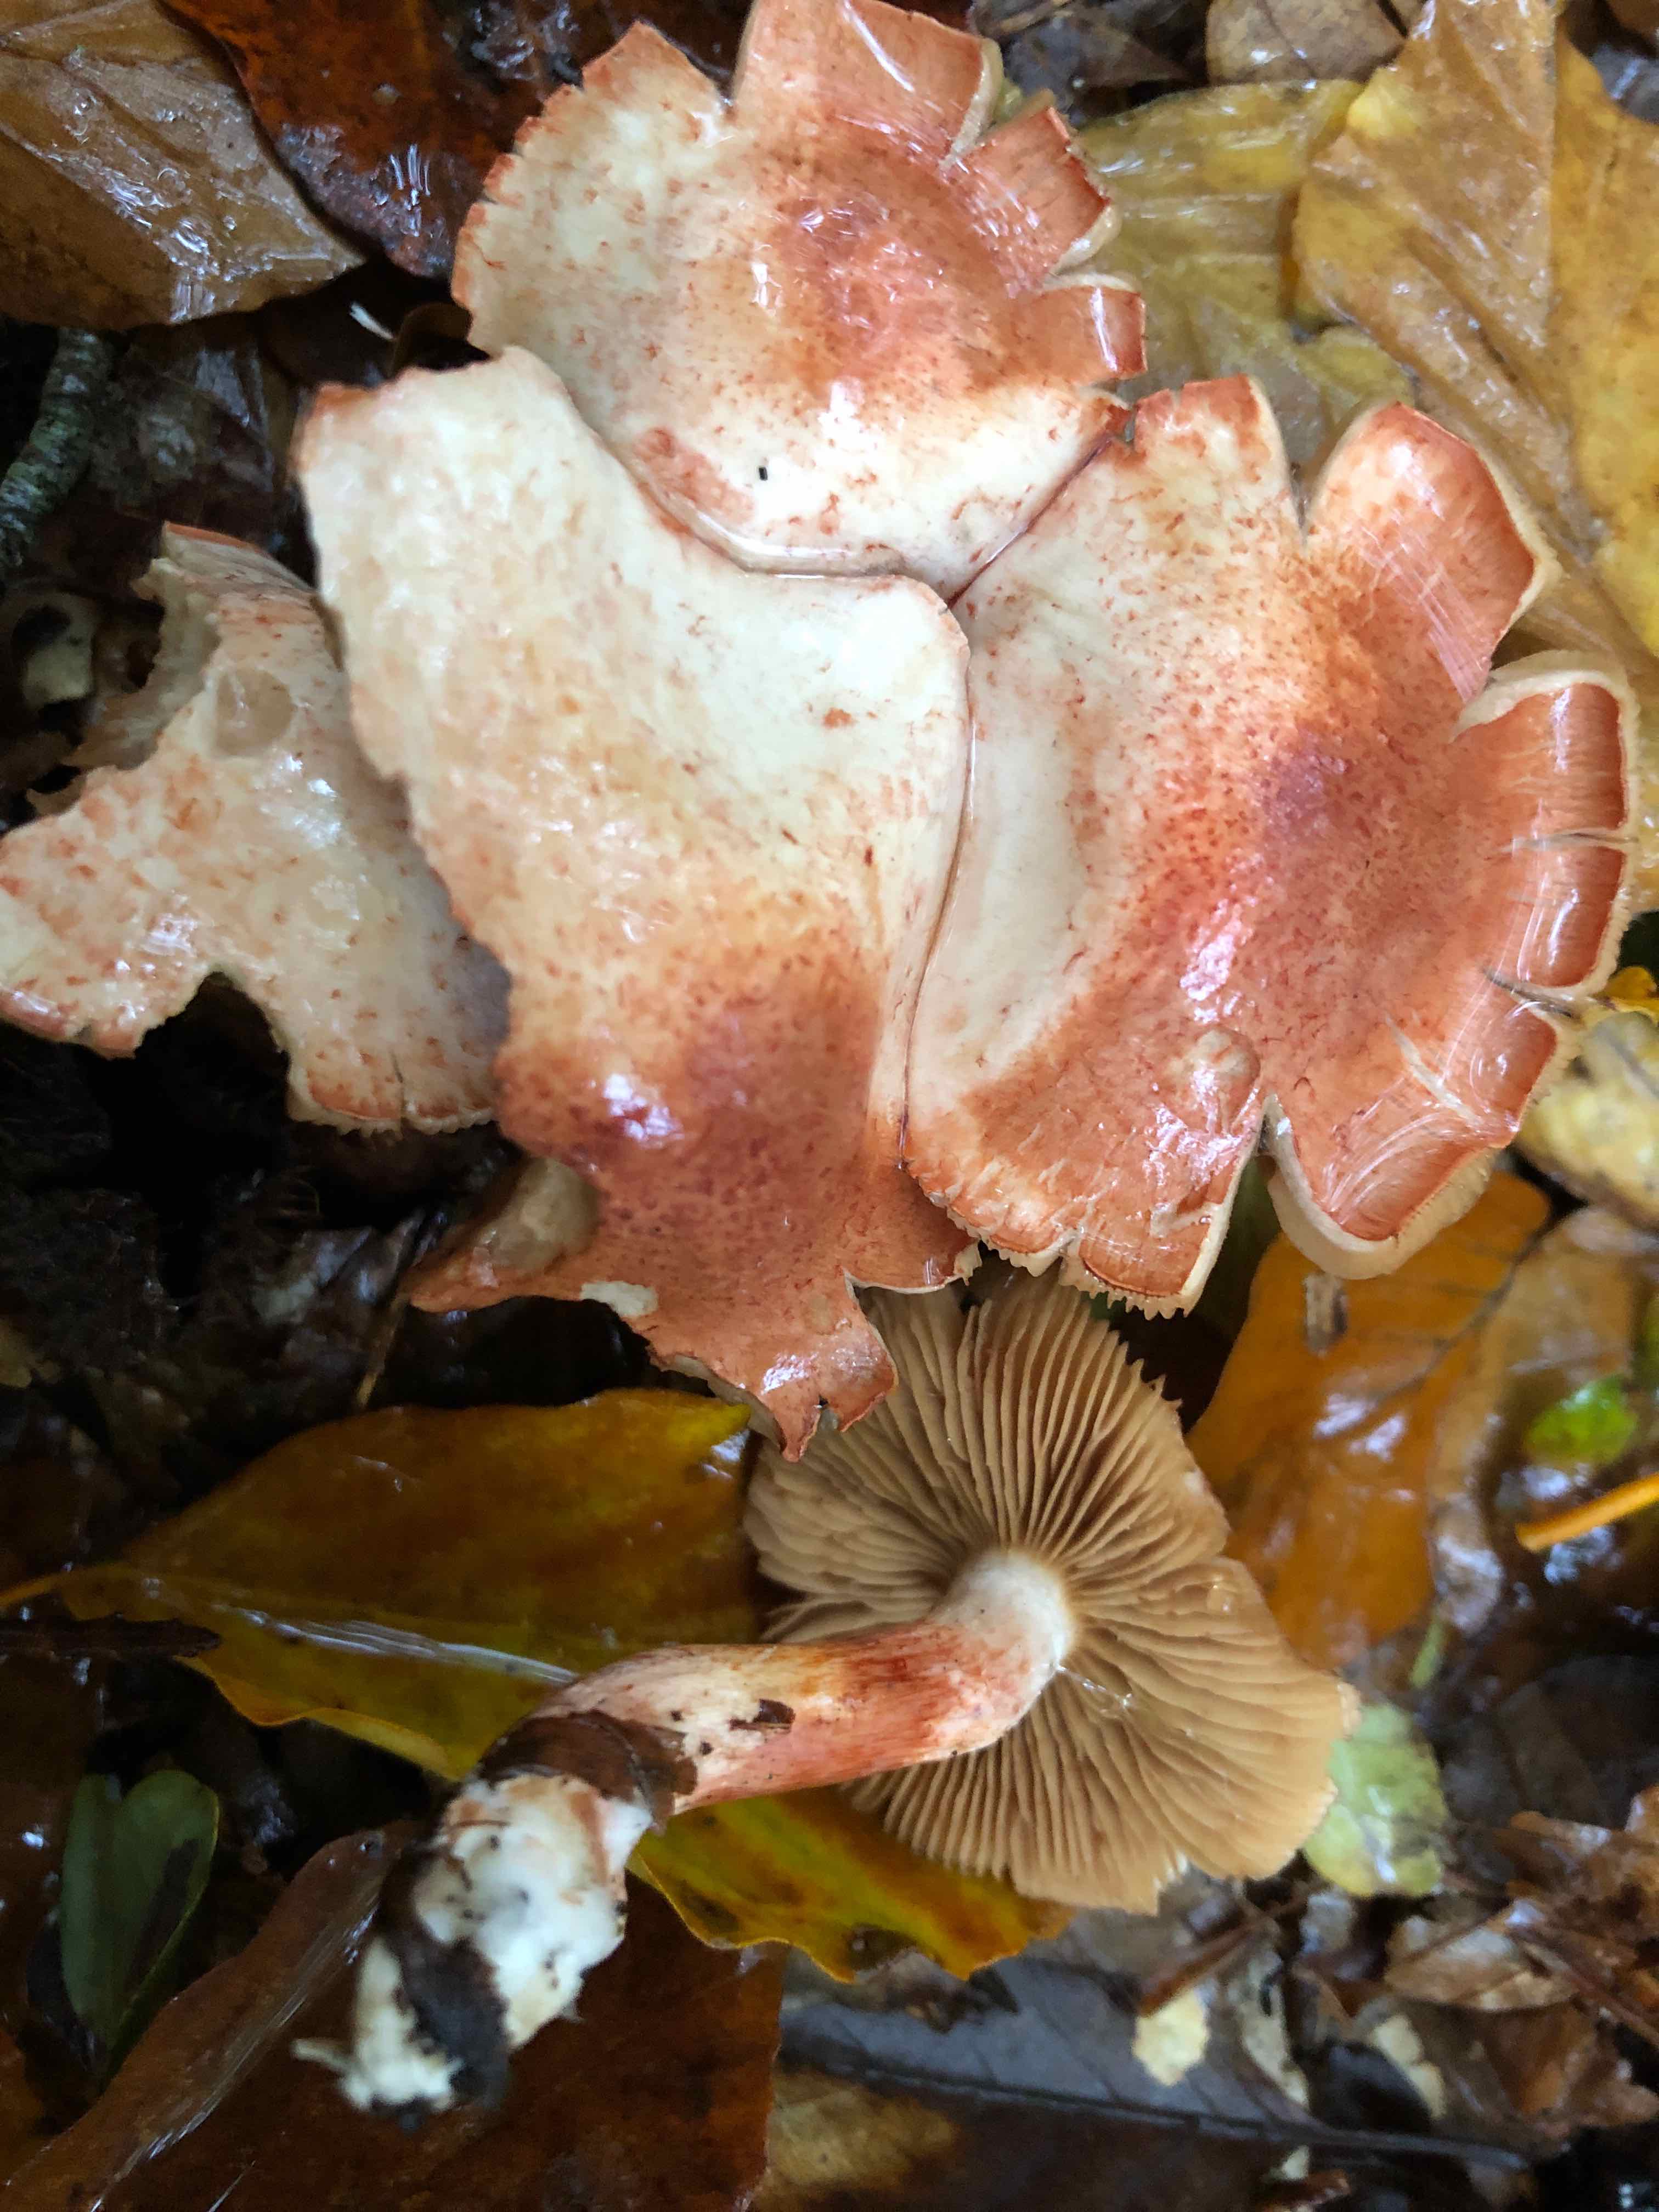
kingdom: Fungi
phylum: Basidiomycota
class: Agaricomycetes
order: Agaricales
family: Cortinariaceae
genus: Cortinarius
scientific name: Cortinarius bolaris
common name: cinnoberskællet slørhat
